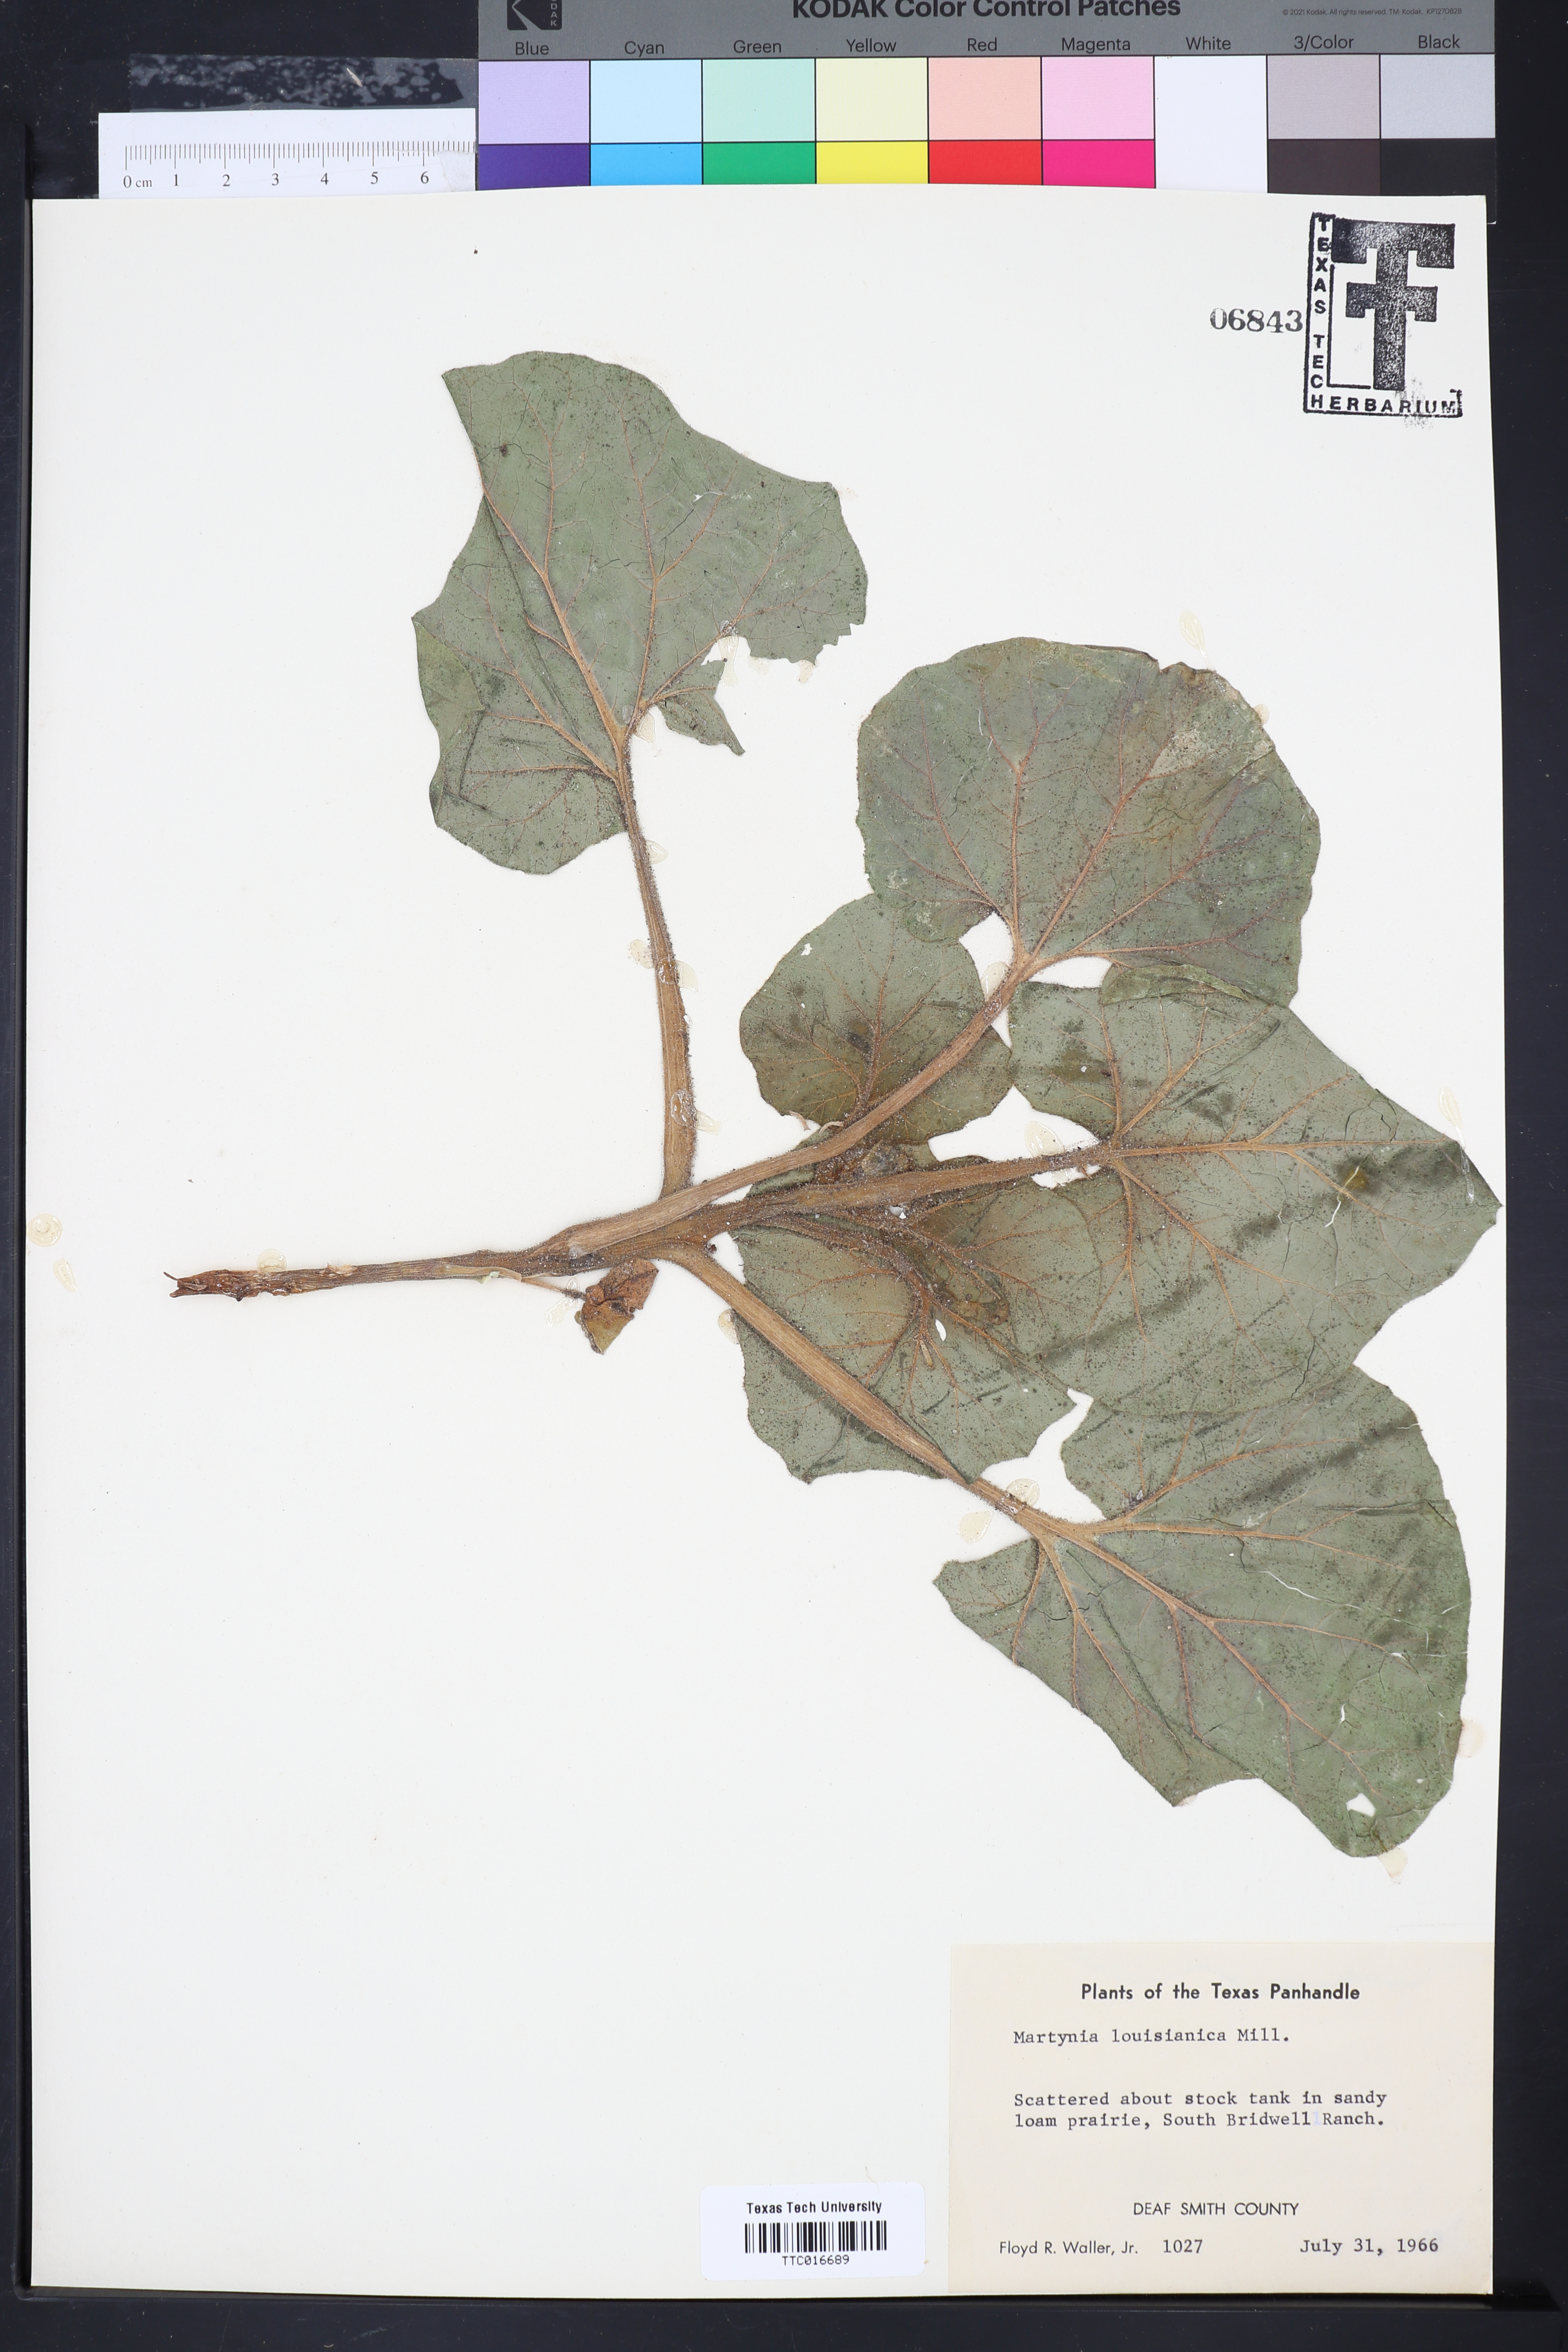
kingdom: Plantae
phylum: Tracheophyta
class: Magnoliopsida
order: Lamiales
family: Martyniaceae
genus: Proboscidea
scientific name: Proboscidea louisianica
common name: Elephant tusks
